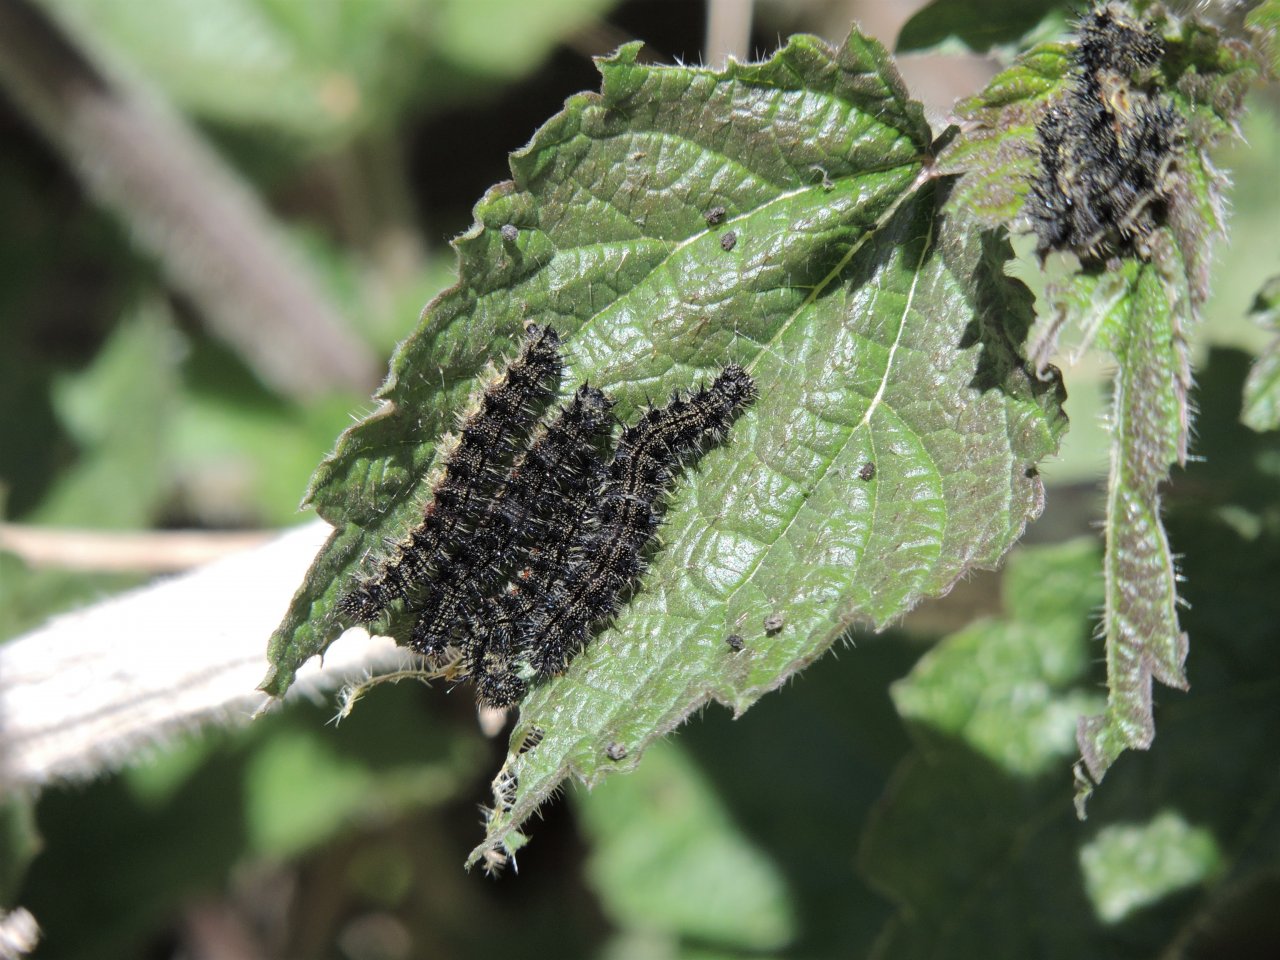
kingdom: Animalia
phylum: Arthropoda
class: Insecta
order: Lepidoptera
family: Nymphalidae
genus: Aglais
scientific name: Aglais milberti
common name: Milbert's Tortoiseshell
